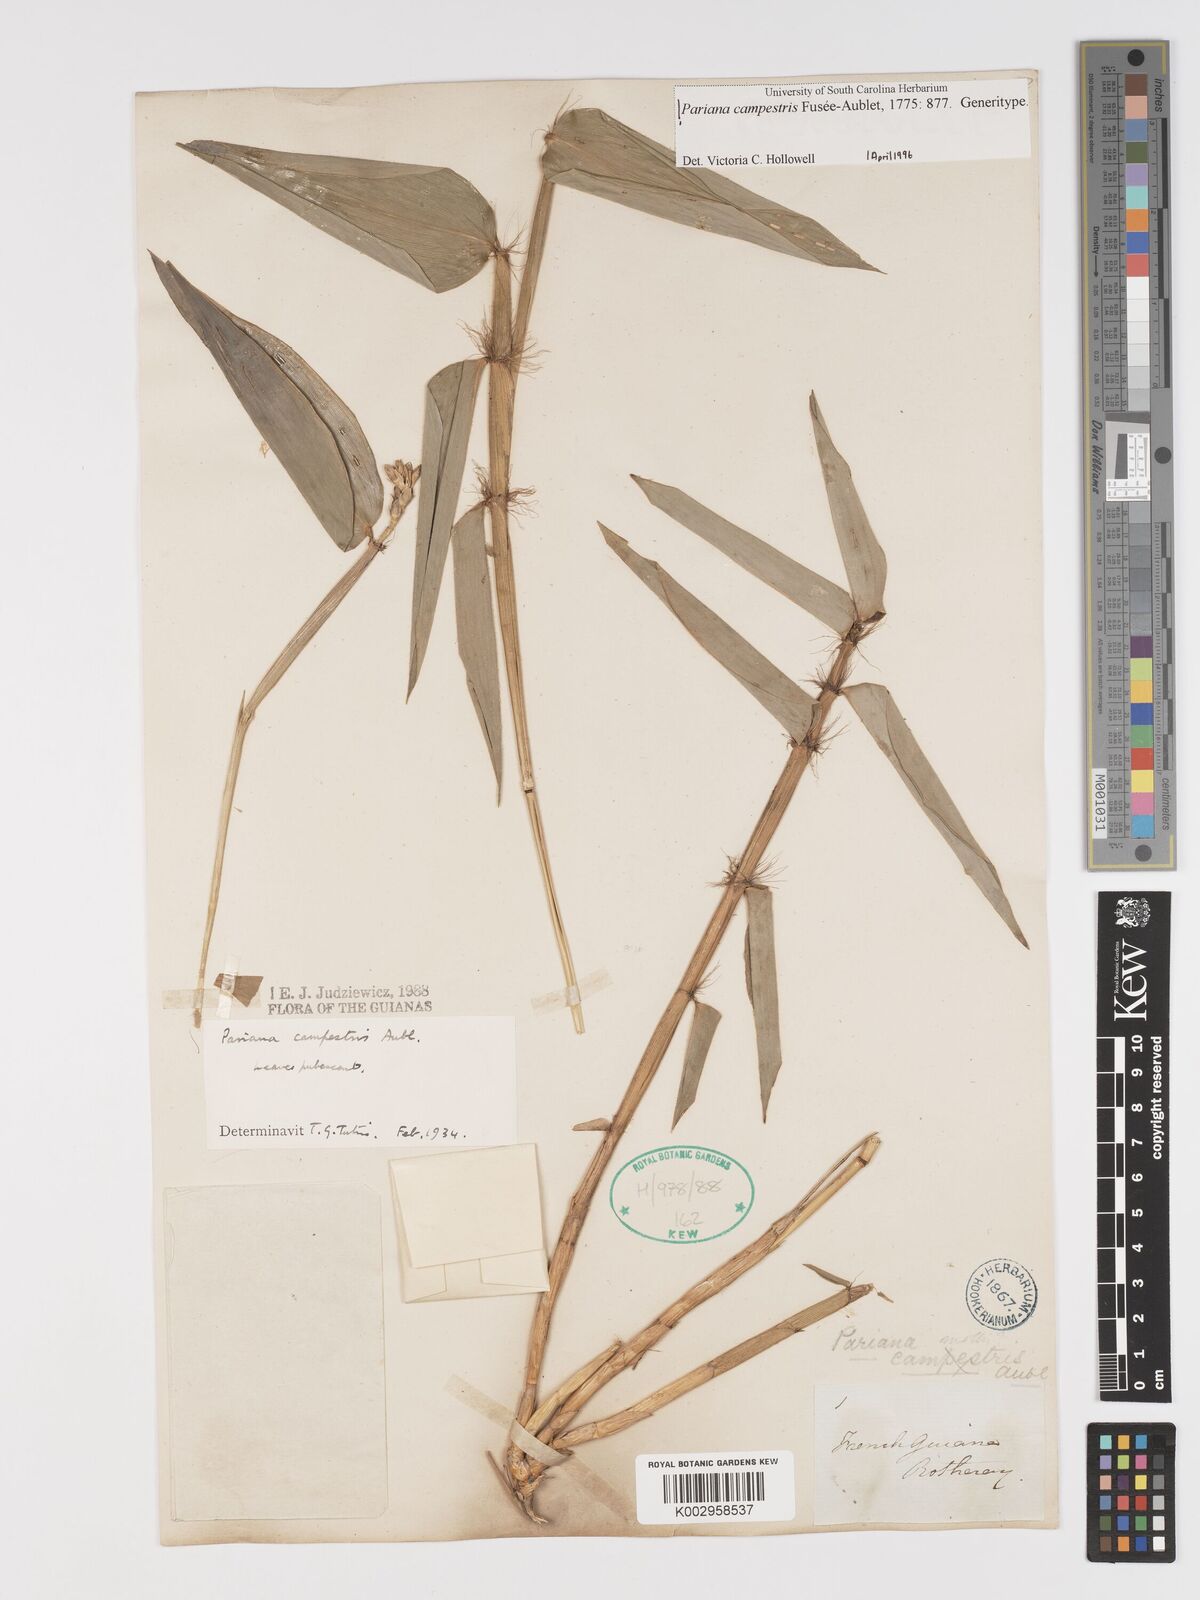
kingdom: Plantae
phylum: Tracheophyta
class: Liliopsida
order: Poales
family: Poaceae
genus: Pariana
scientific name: Pariana campestris
